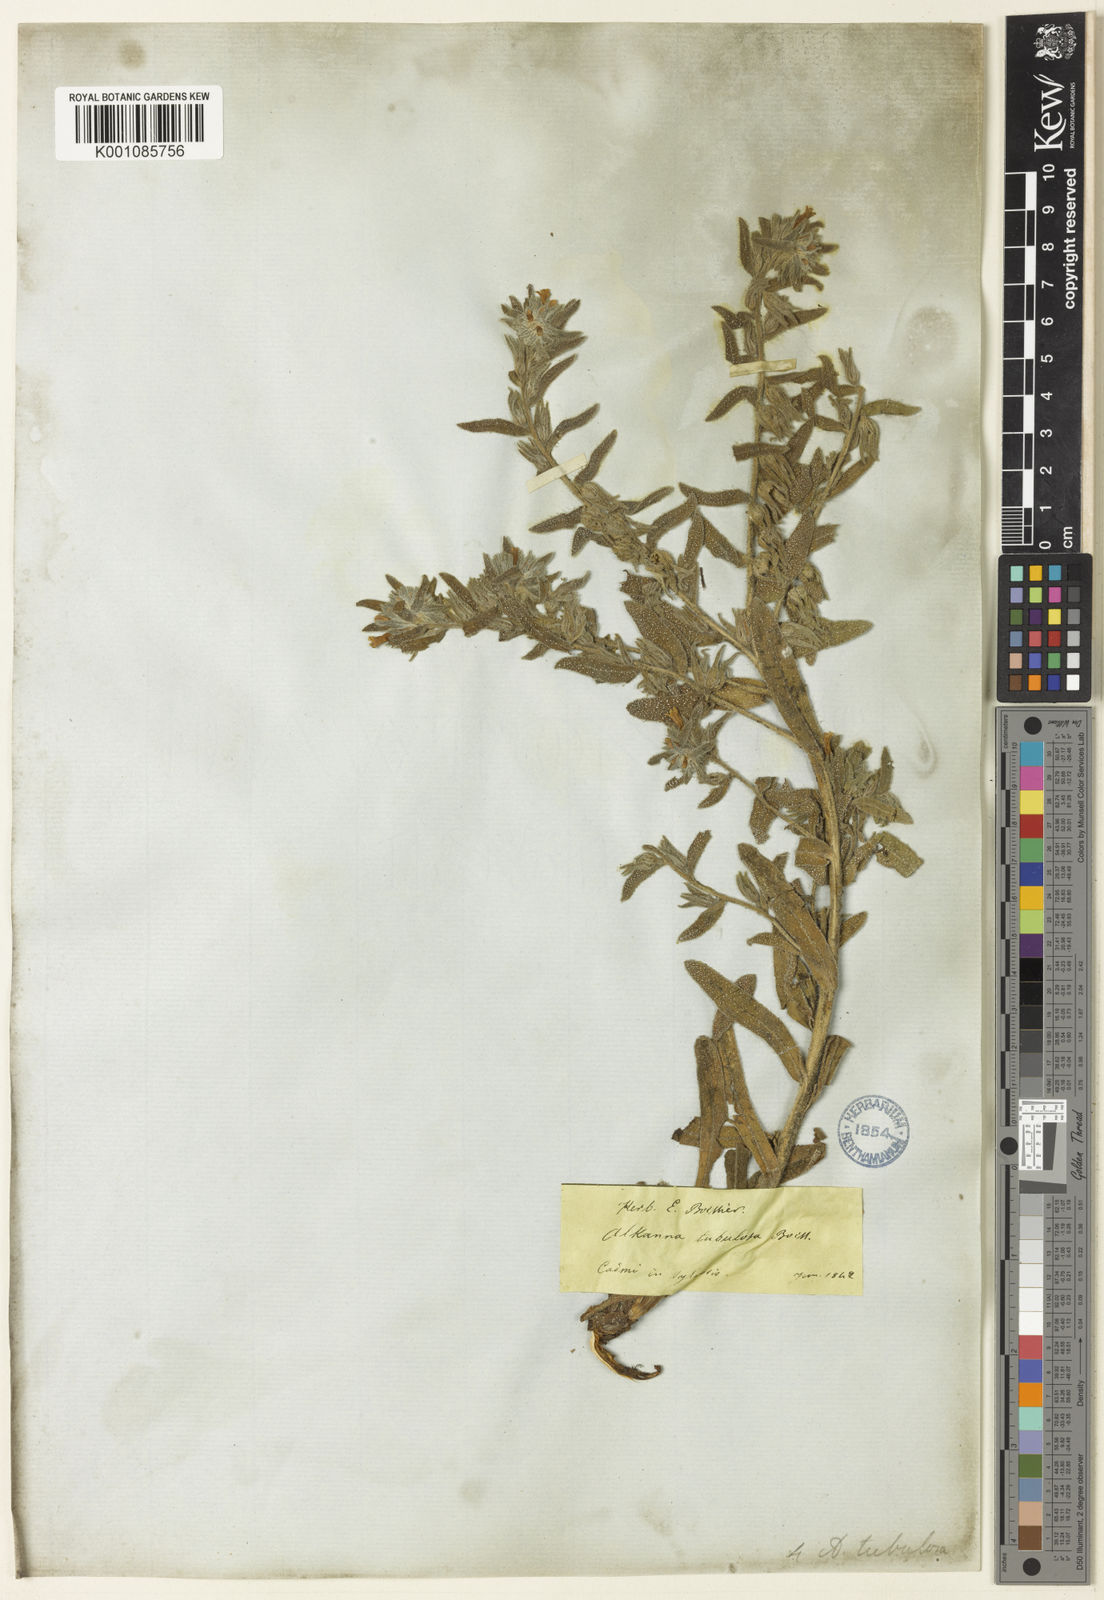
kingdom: Plantae
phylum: Tracheophyta
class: Magnoliopsida
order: Boraginales
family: Boraginaceae
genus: Alkanna
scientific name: Alkanna tubulosa
